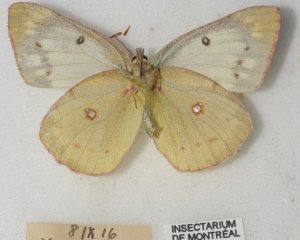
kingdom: Animalia
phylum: Arthropoda
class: Insecta
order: Lepidoptera
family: Pieridae
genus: Colias
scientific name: Colias philodice
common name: Clouded Sulphur
